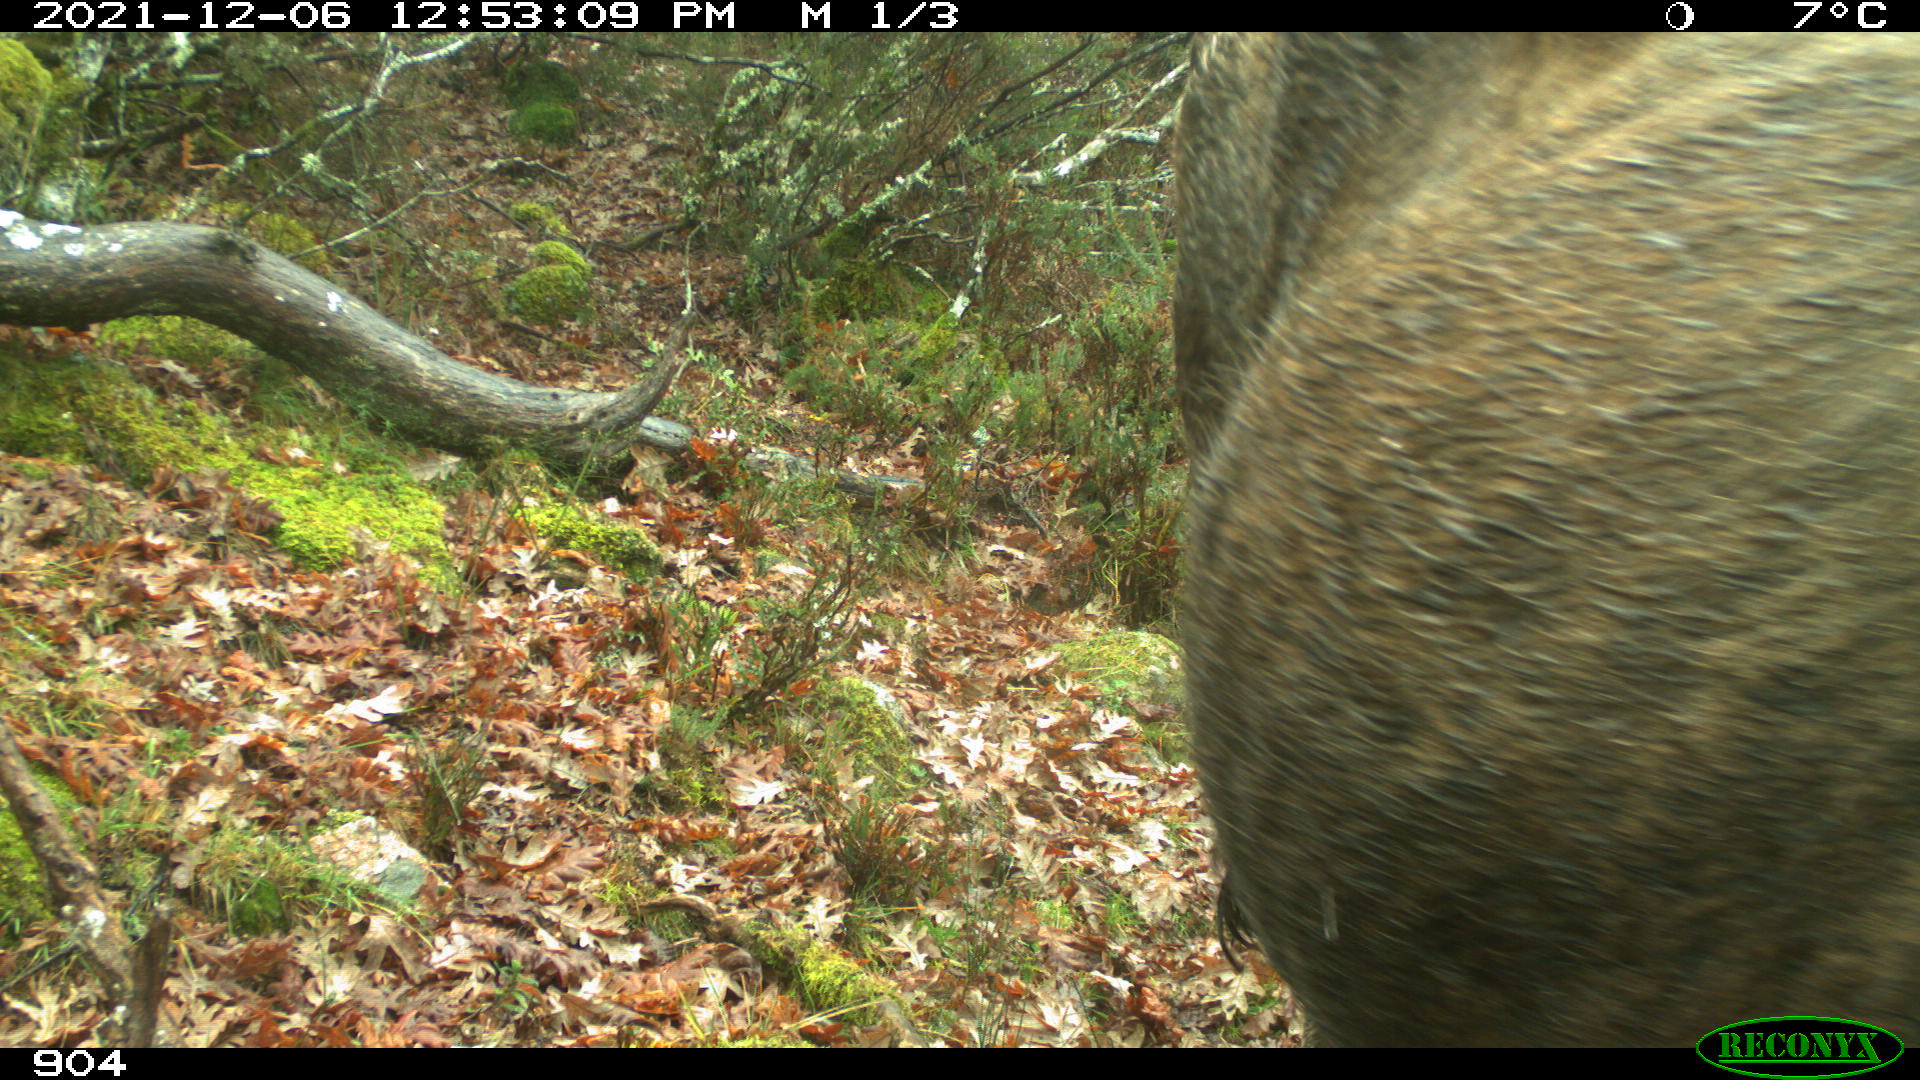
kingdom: Animalia
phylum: Chordata
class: Mammalia
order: Artiodactyla
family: Bovidae
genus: Bos
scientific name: Bos taurus
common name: Domesticated cattle
